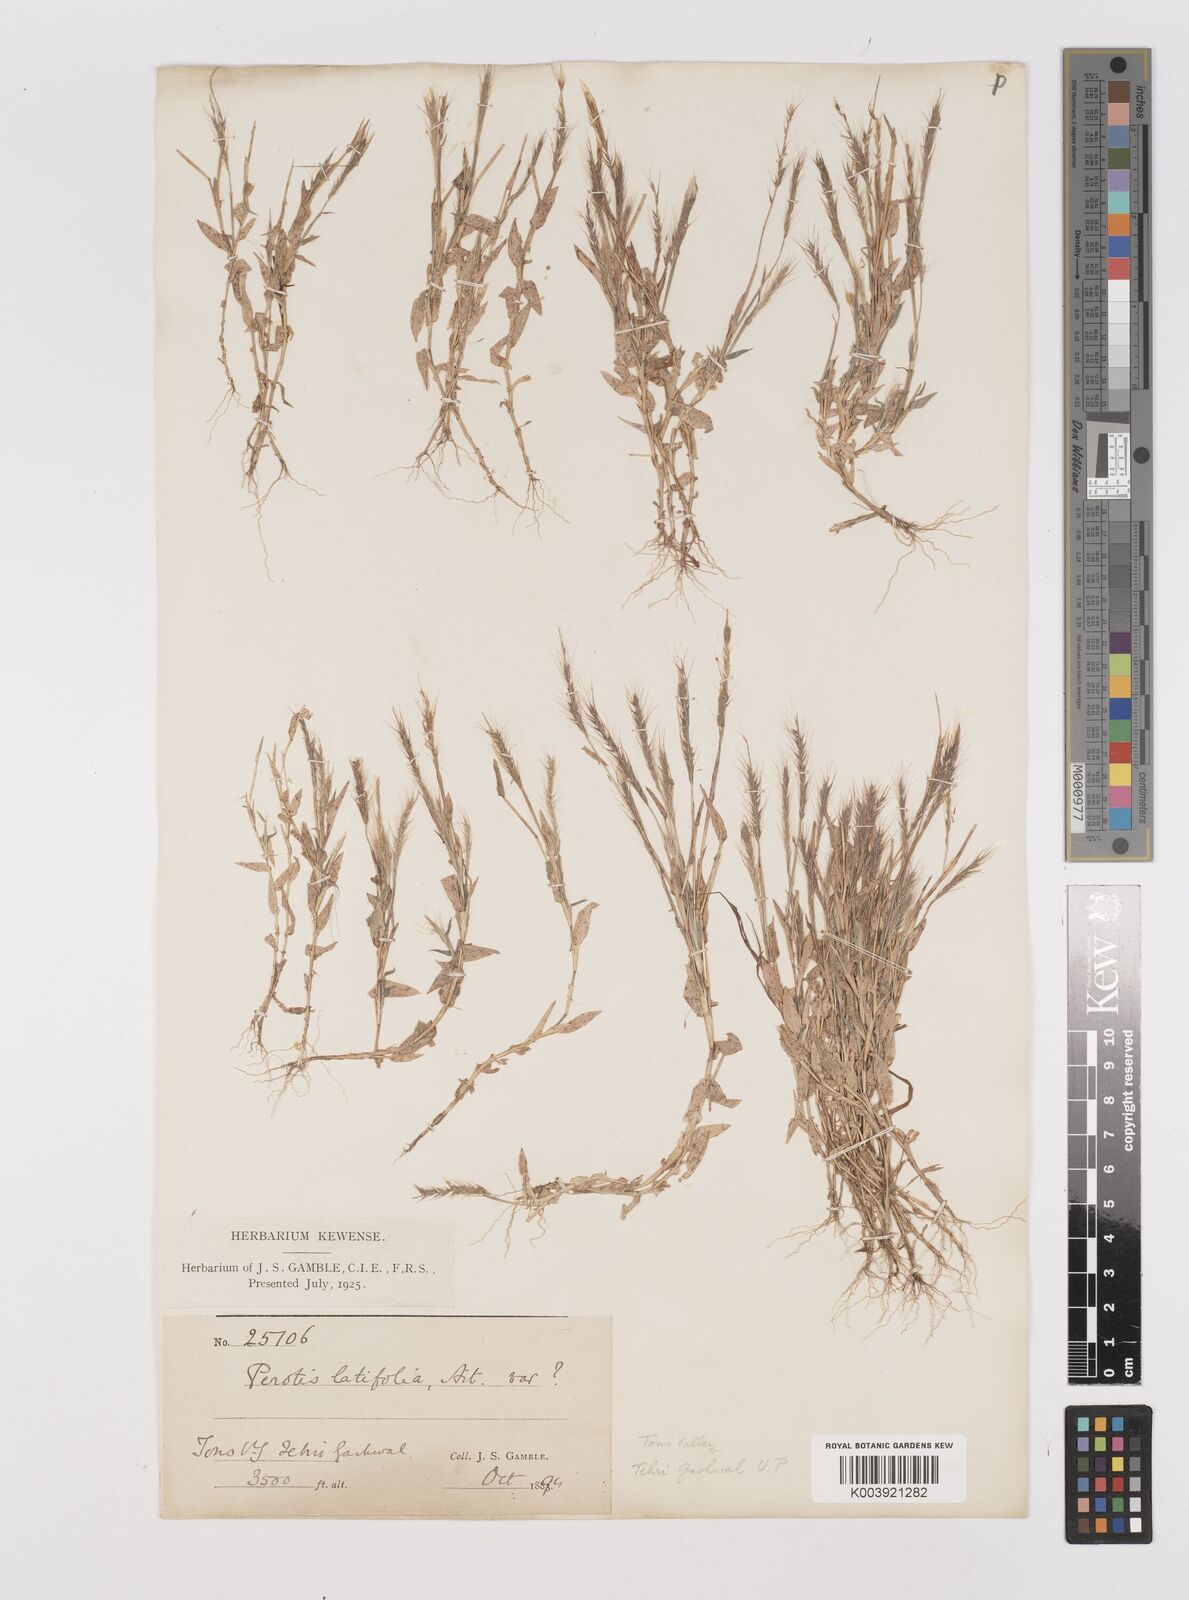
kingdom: Plantae
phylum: Tracheophyta
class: Liliopsida
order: Poales
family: Poaceae
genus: Perotis
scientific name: Perotis hordeiformis
